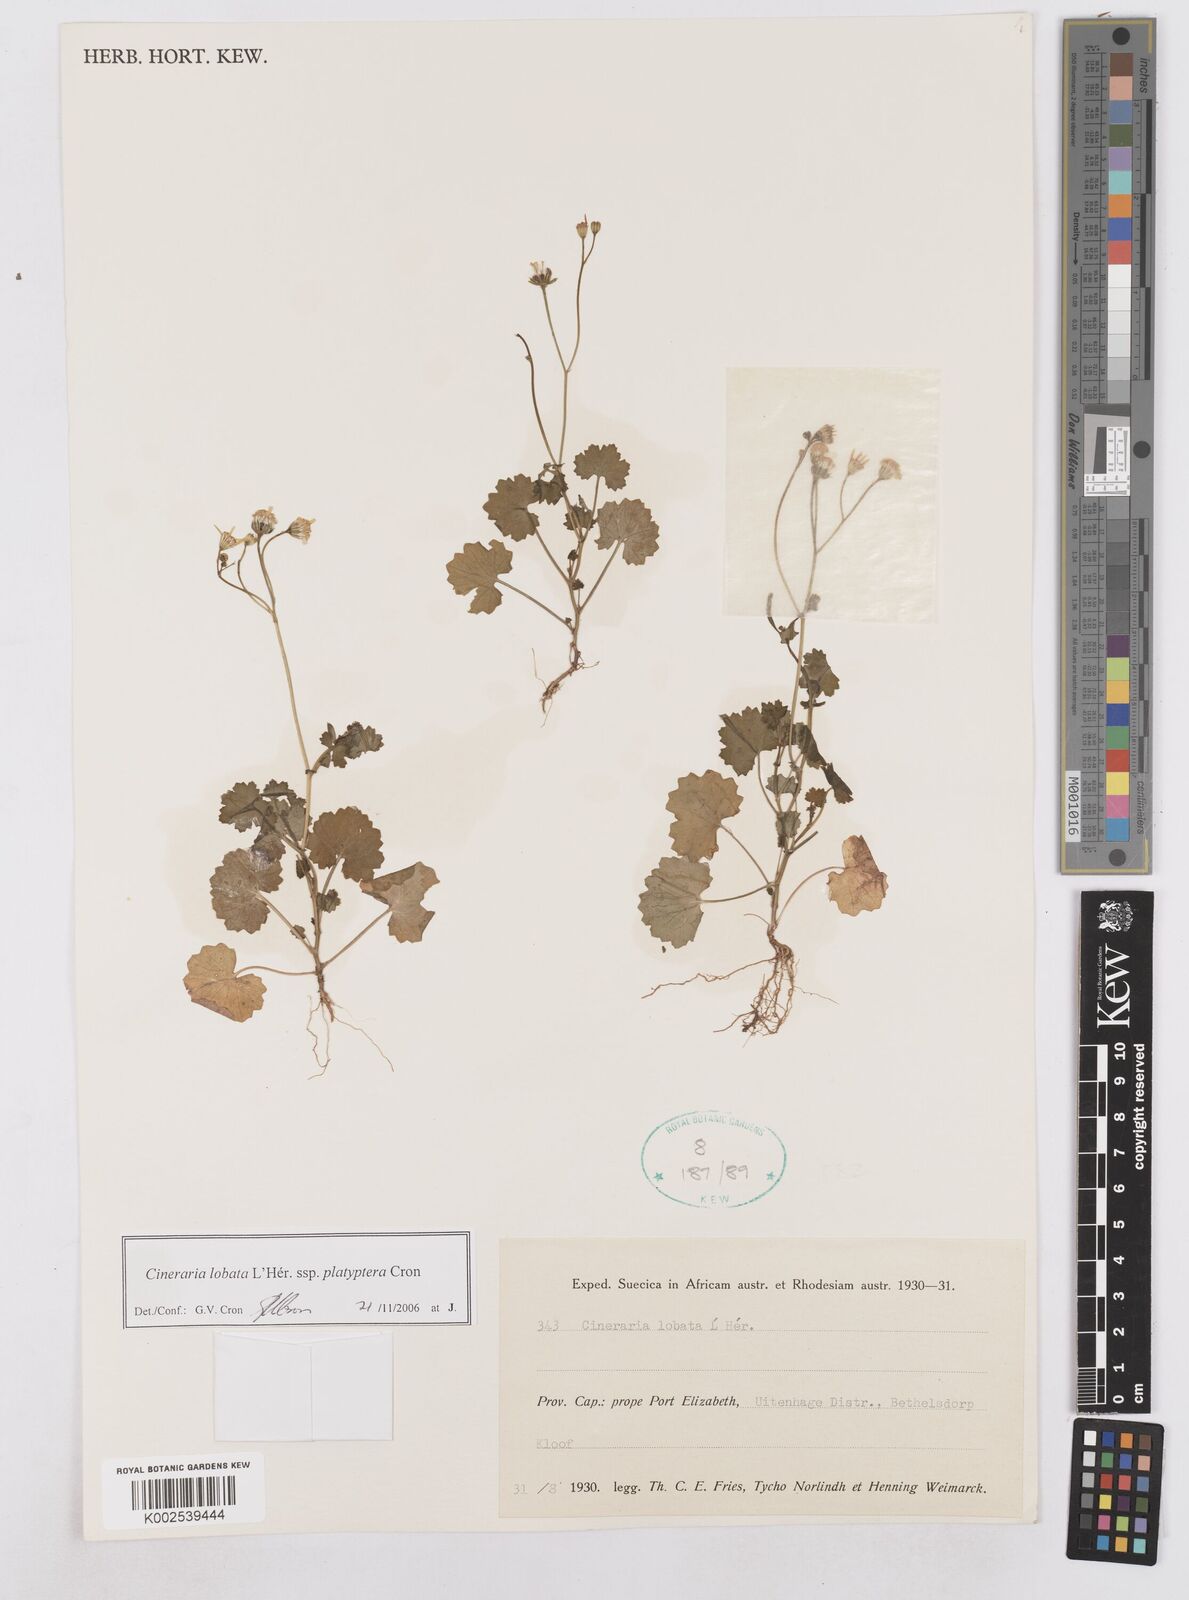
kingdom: Plantae
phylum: Tracheophyta
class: Magnoliopsida
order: Asterales
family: Asteraceae
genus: Cineraria
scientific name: Cineraria lobata
